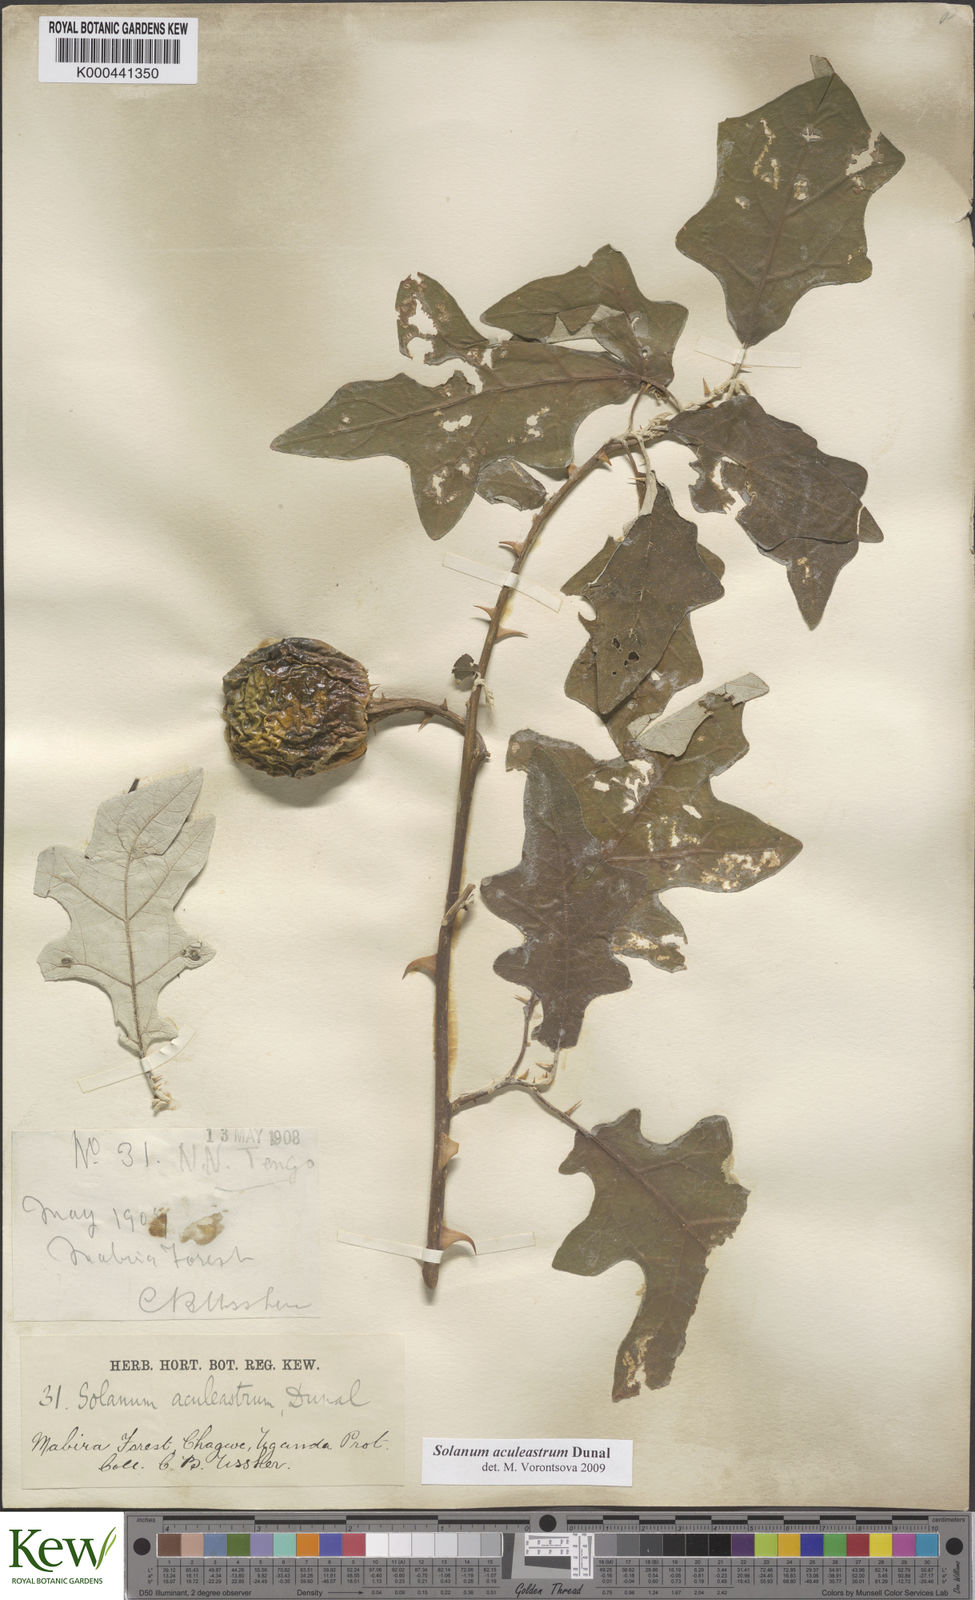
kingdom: Plantae
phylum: Tracheophyta
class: Magnoliopsida
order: Solanales
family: Solanaceae
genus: Solanum
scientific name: Solanum aculeastrum
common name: Goat bitter-apple
